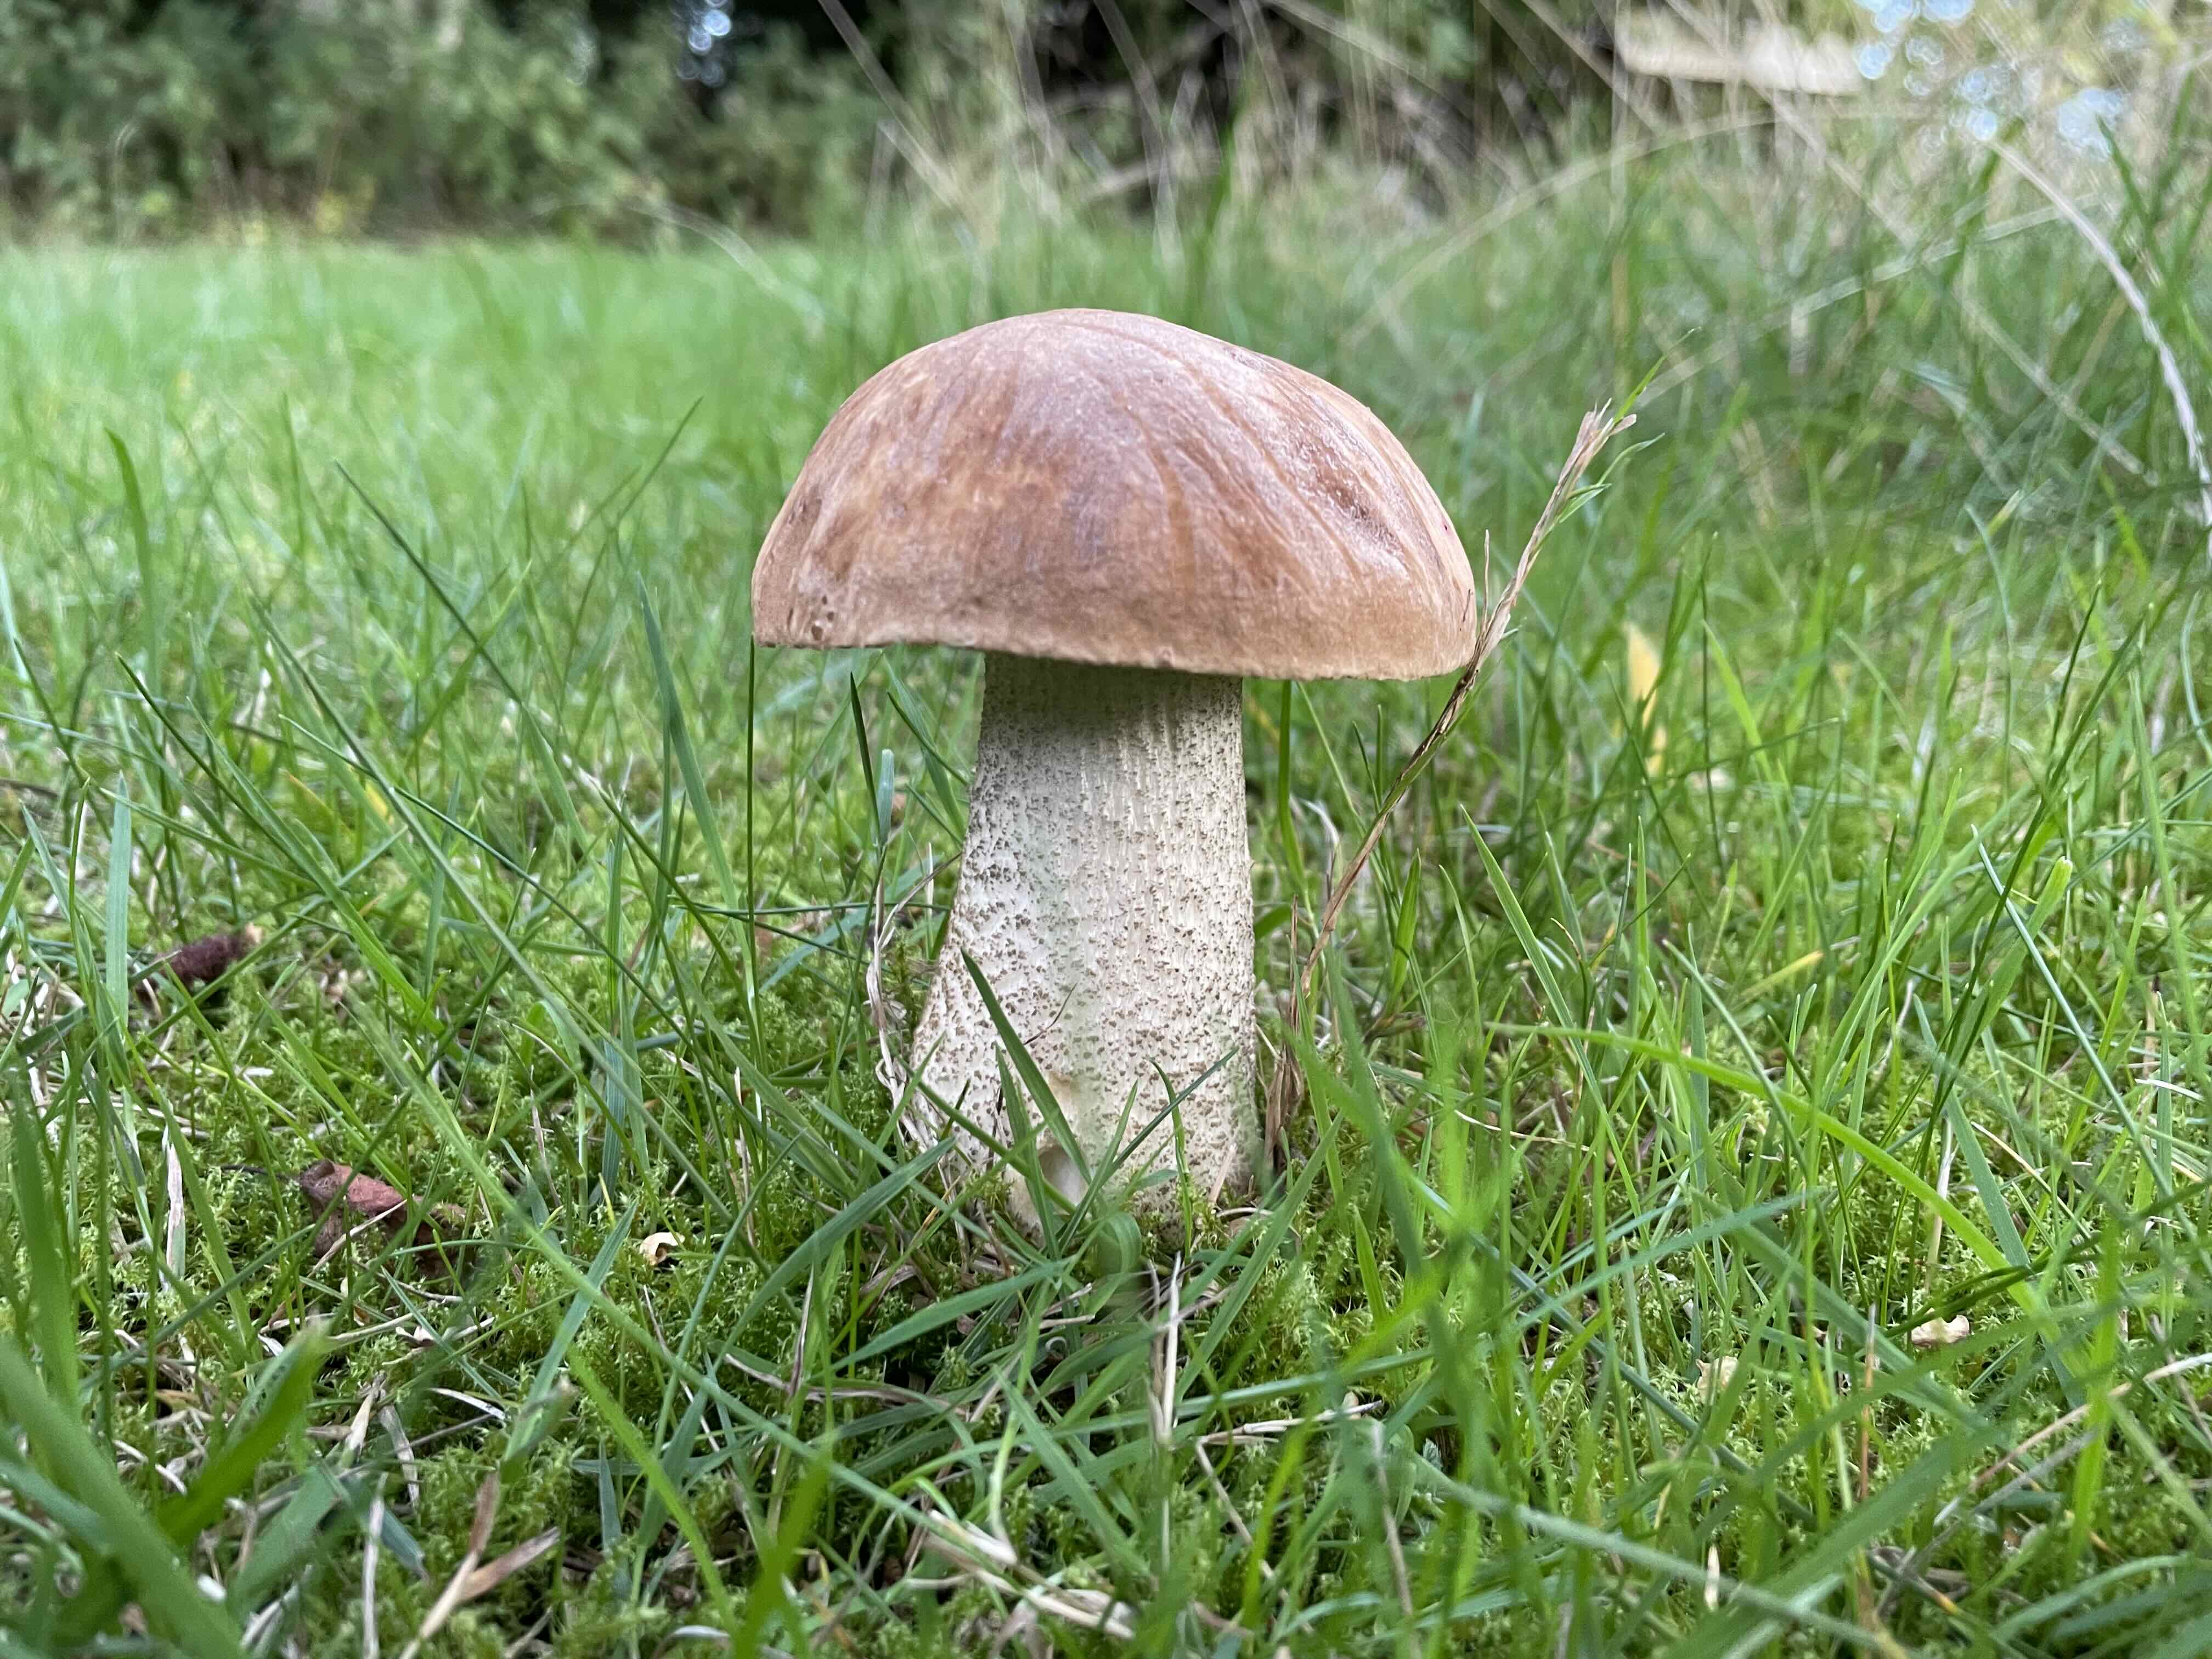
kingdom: Fungi
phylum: Basidiomycota
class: Agaricomycetes
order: Boletales
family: Boletaceae
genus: Leccinum
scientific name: Leccinum scabrum
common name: brun skælrørhat
